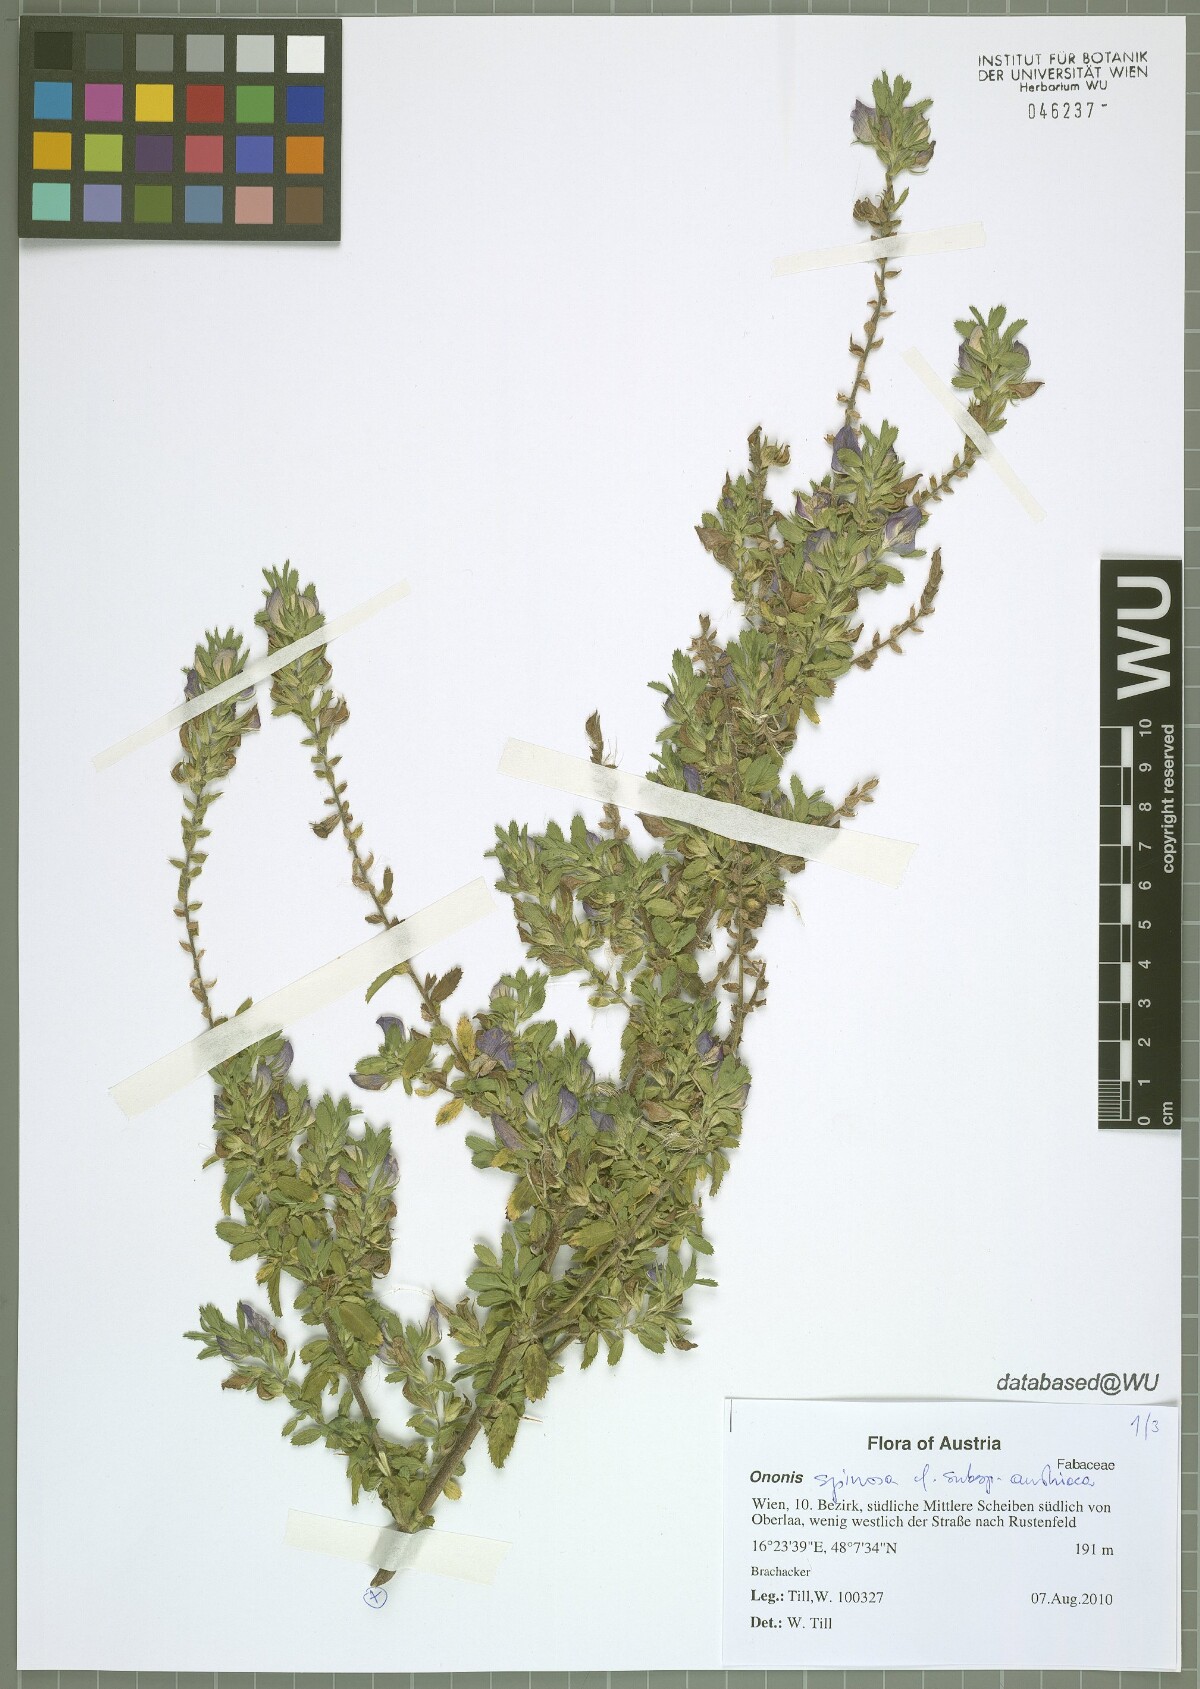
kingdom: Plantae
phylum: Tracheophyta
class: Magnoliopsida
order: Fabales
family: Fabaceae
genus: Ononis
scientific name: Ononis spinosa
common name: Spiny restharrow
